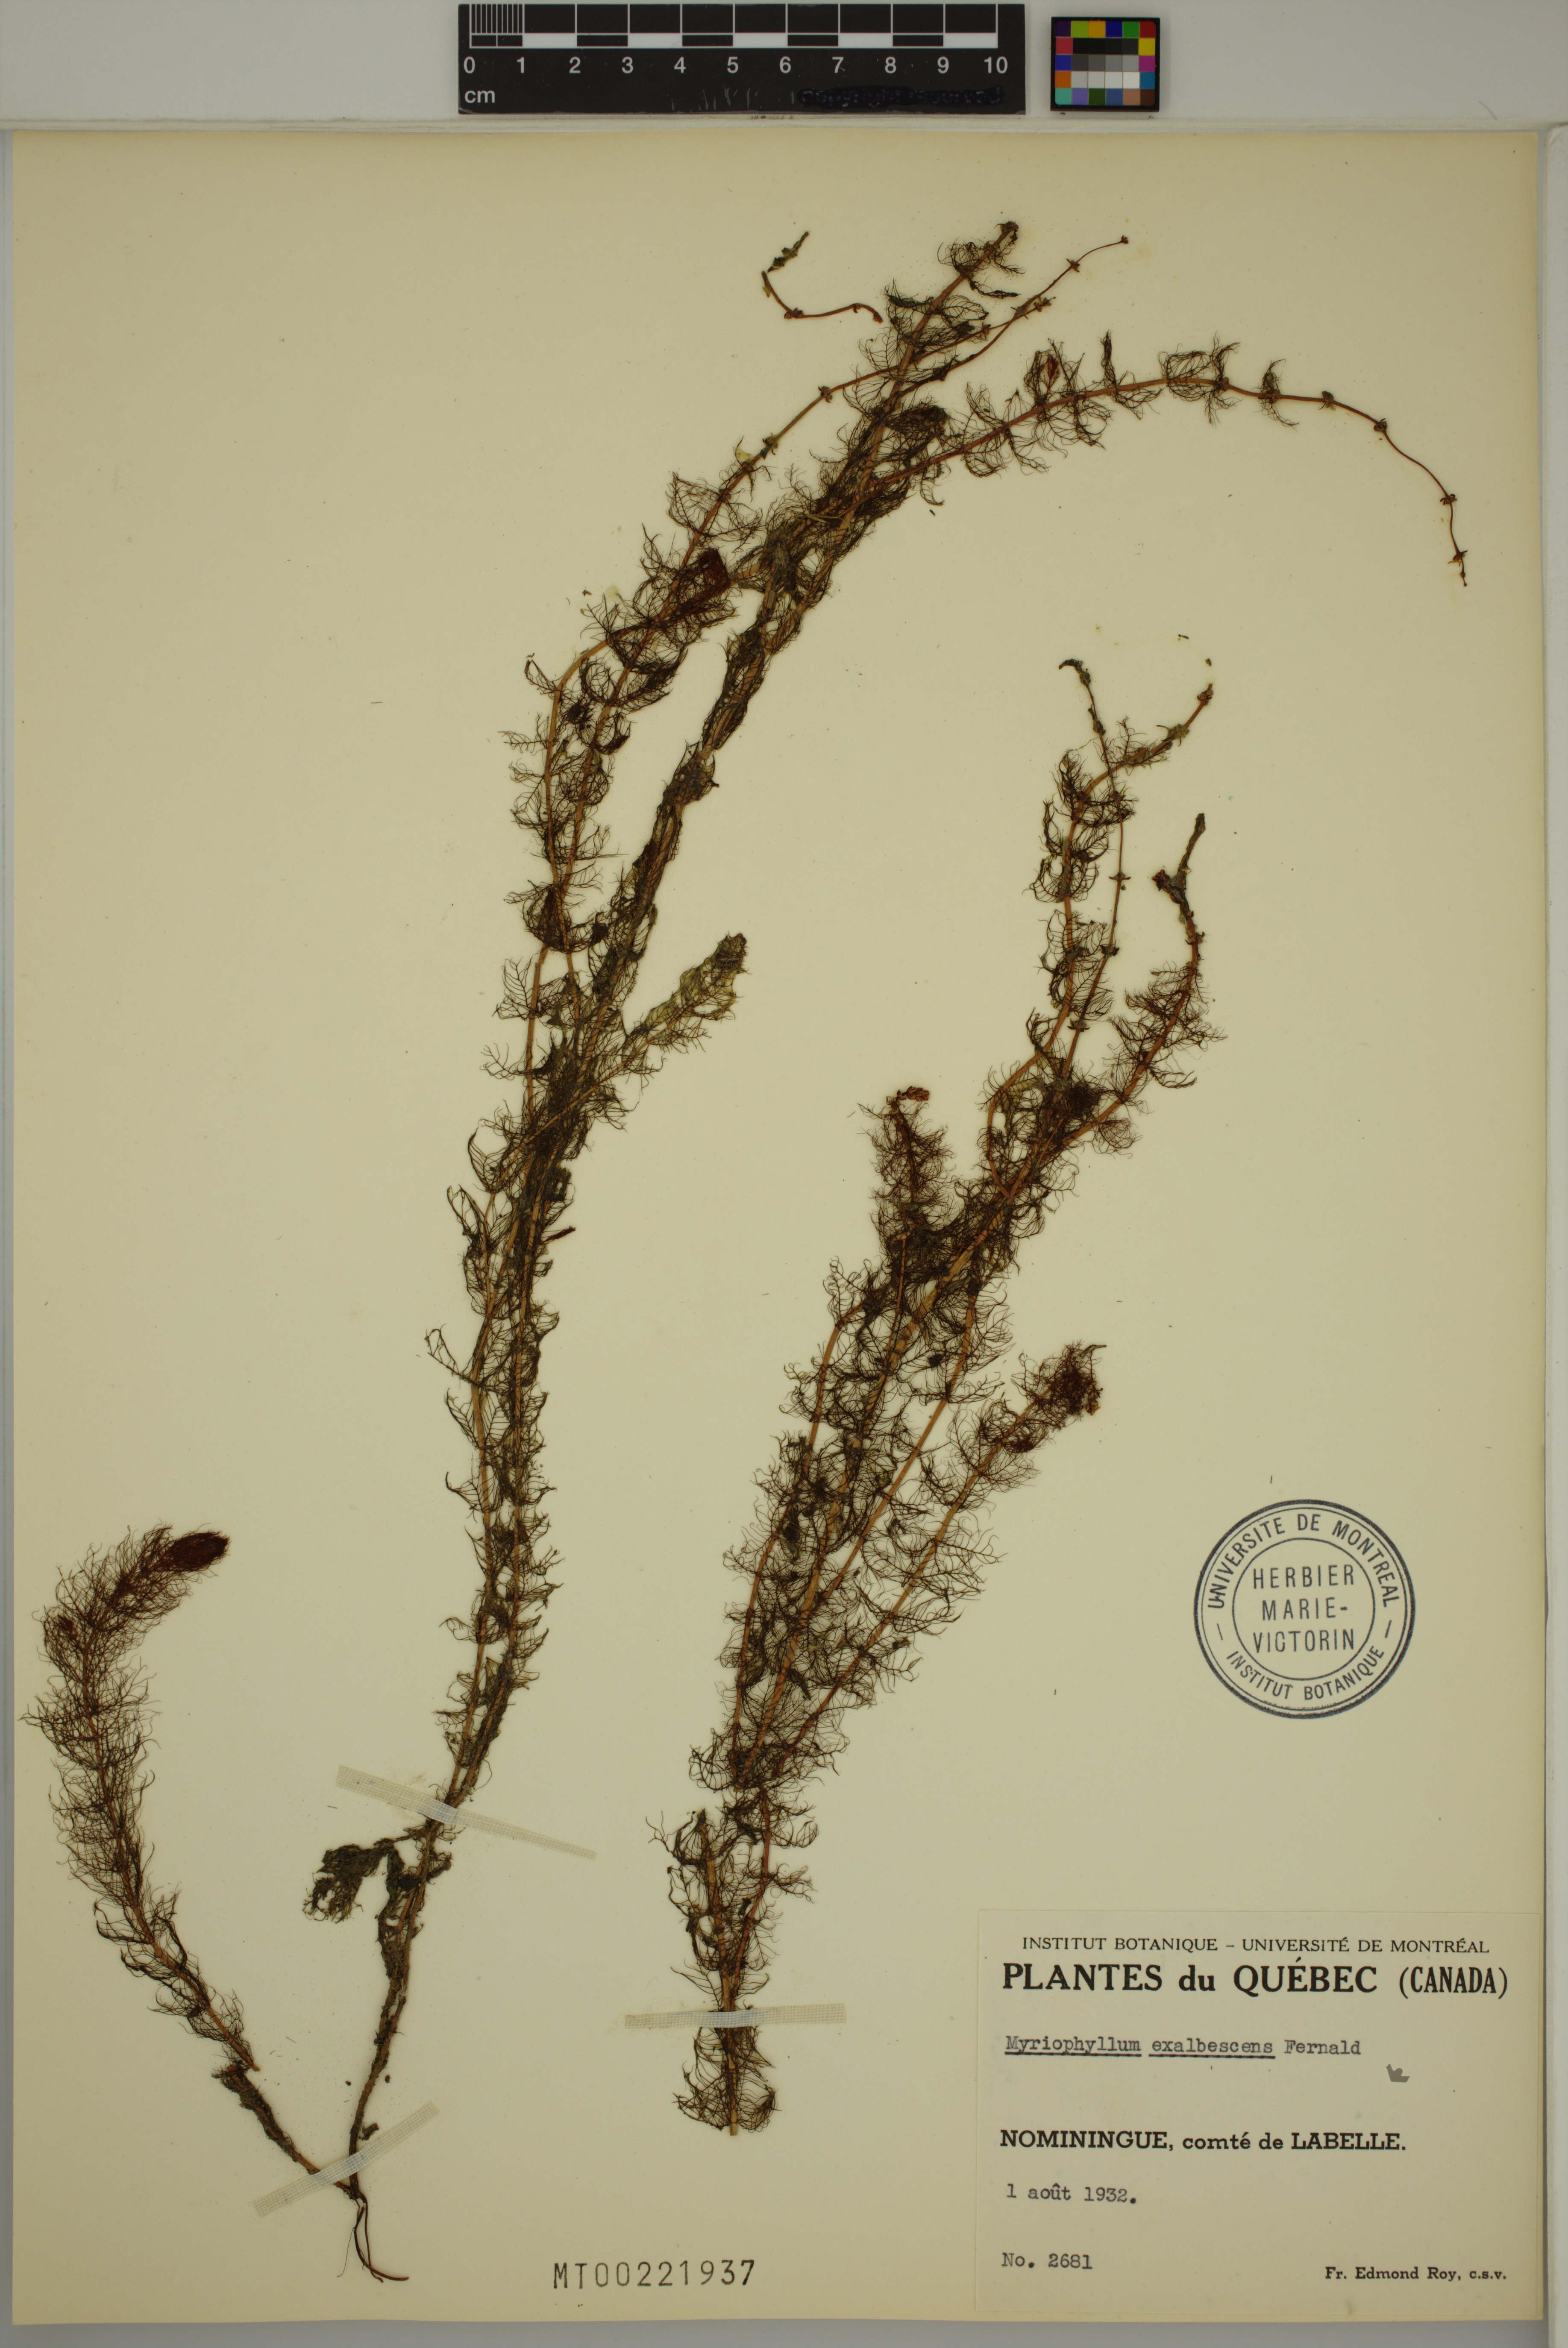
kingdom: Plantae
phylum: Tracheophyta
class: Magnoliopsida
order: Saxifragales
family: Haloragaceae
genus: Myriophyllum
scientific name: Myriophyllum sibiricum
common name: Siberian water-milfoil
